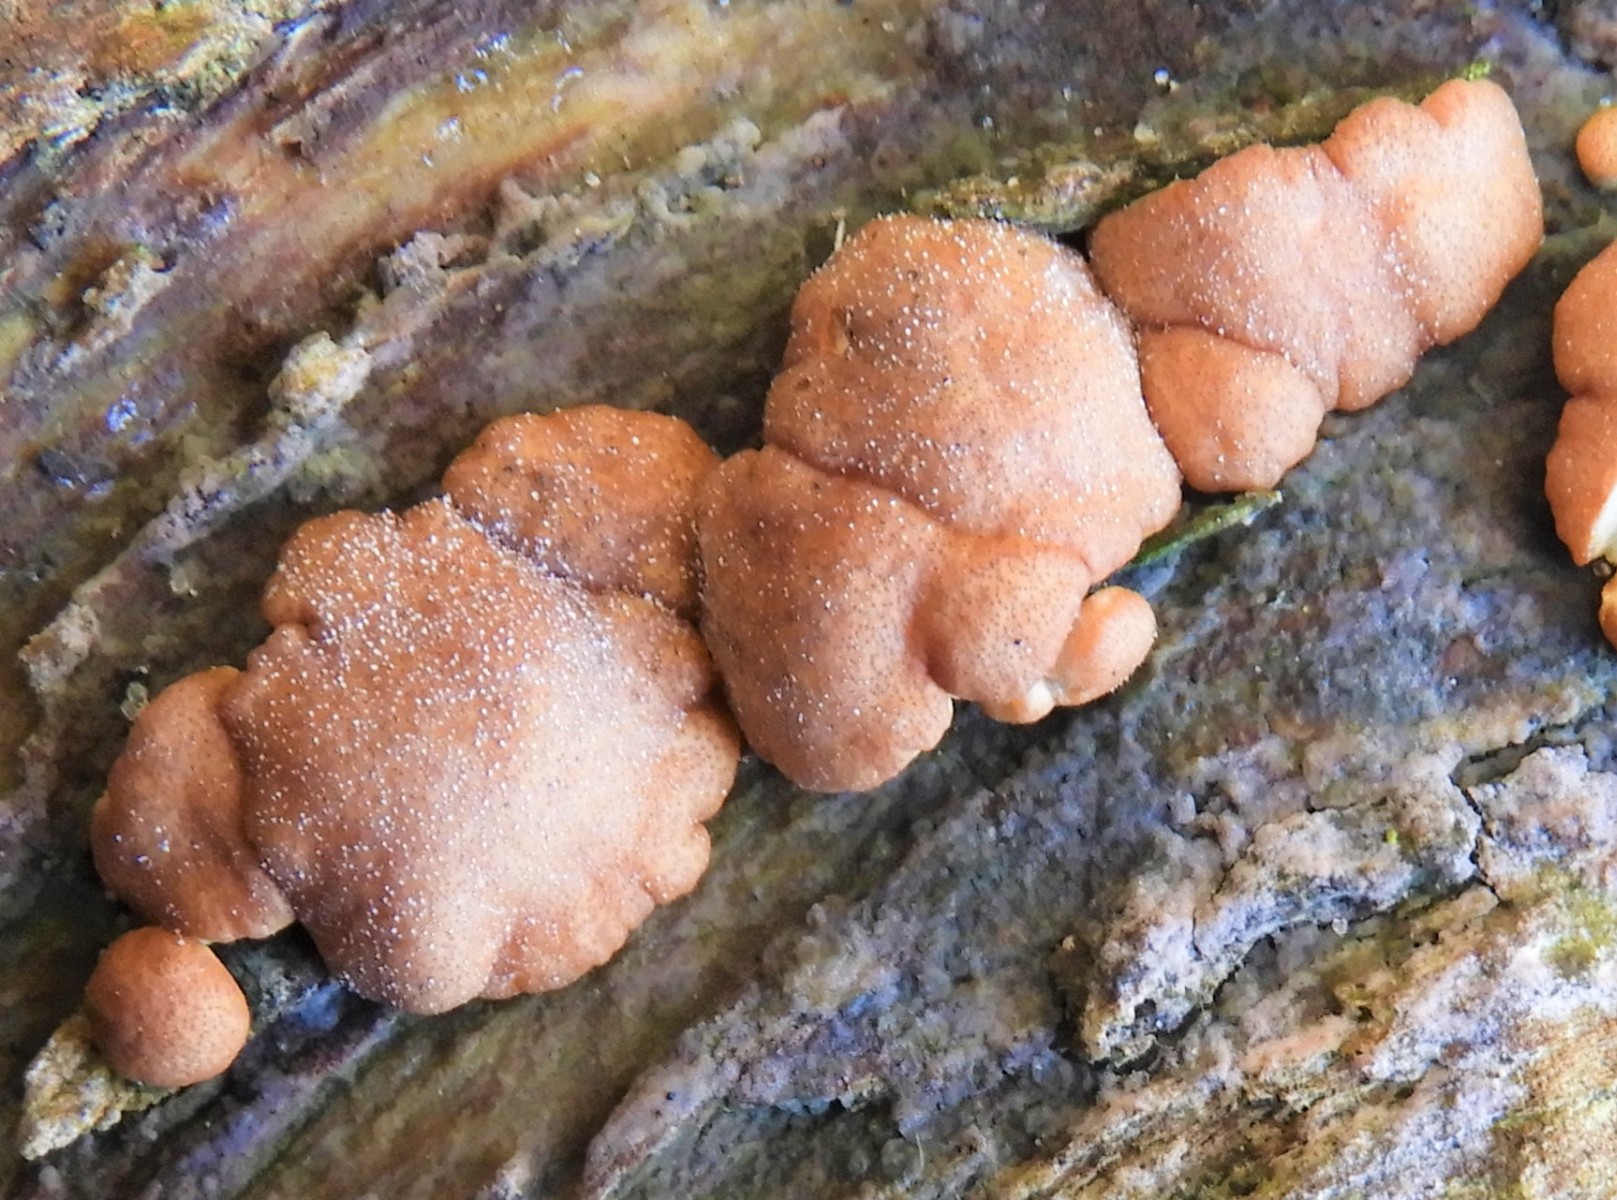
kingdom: Fungi
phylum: Ascomycota
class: Sordariomycetes
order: Hypocreales
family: Hypocreaceae
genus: Trichoderma
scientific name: Trichoderma europaeum
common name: rosabrun kødkerne
